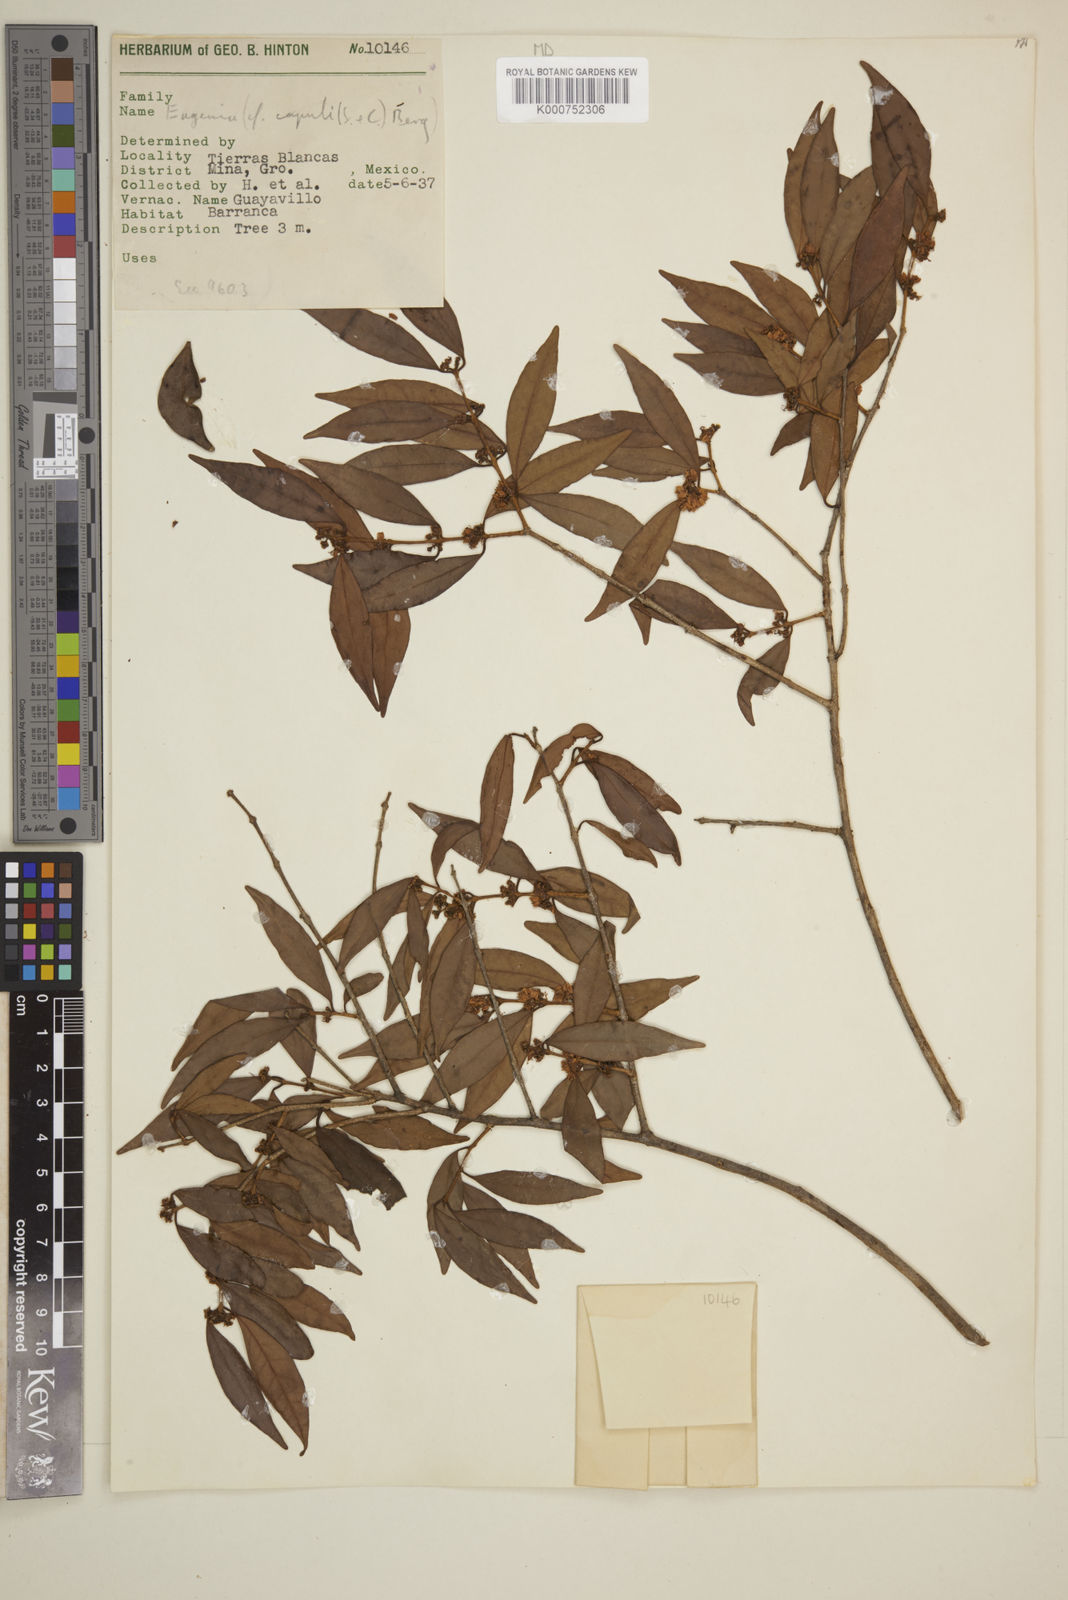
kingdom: Plantae
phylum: Tracheophyta
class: Magnoliopsida
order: Myrtales
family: Myrtaceae
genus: Eugenia
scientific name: Eugenia capuli
